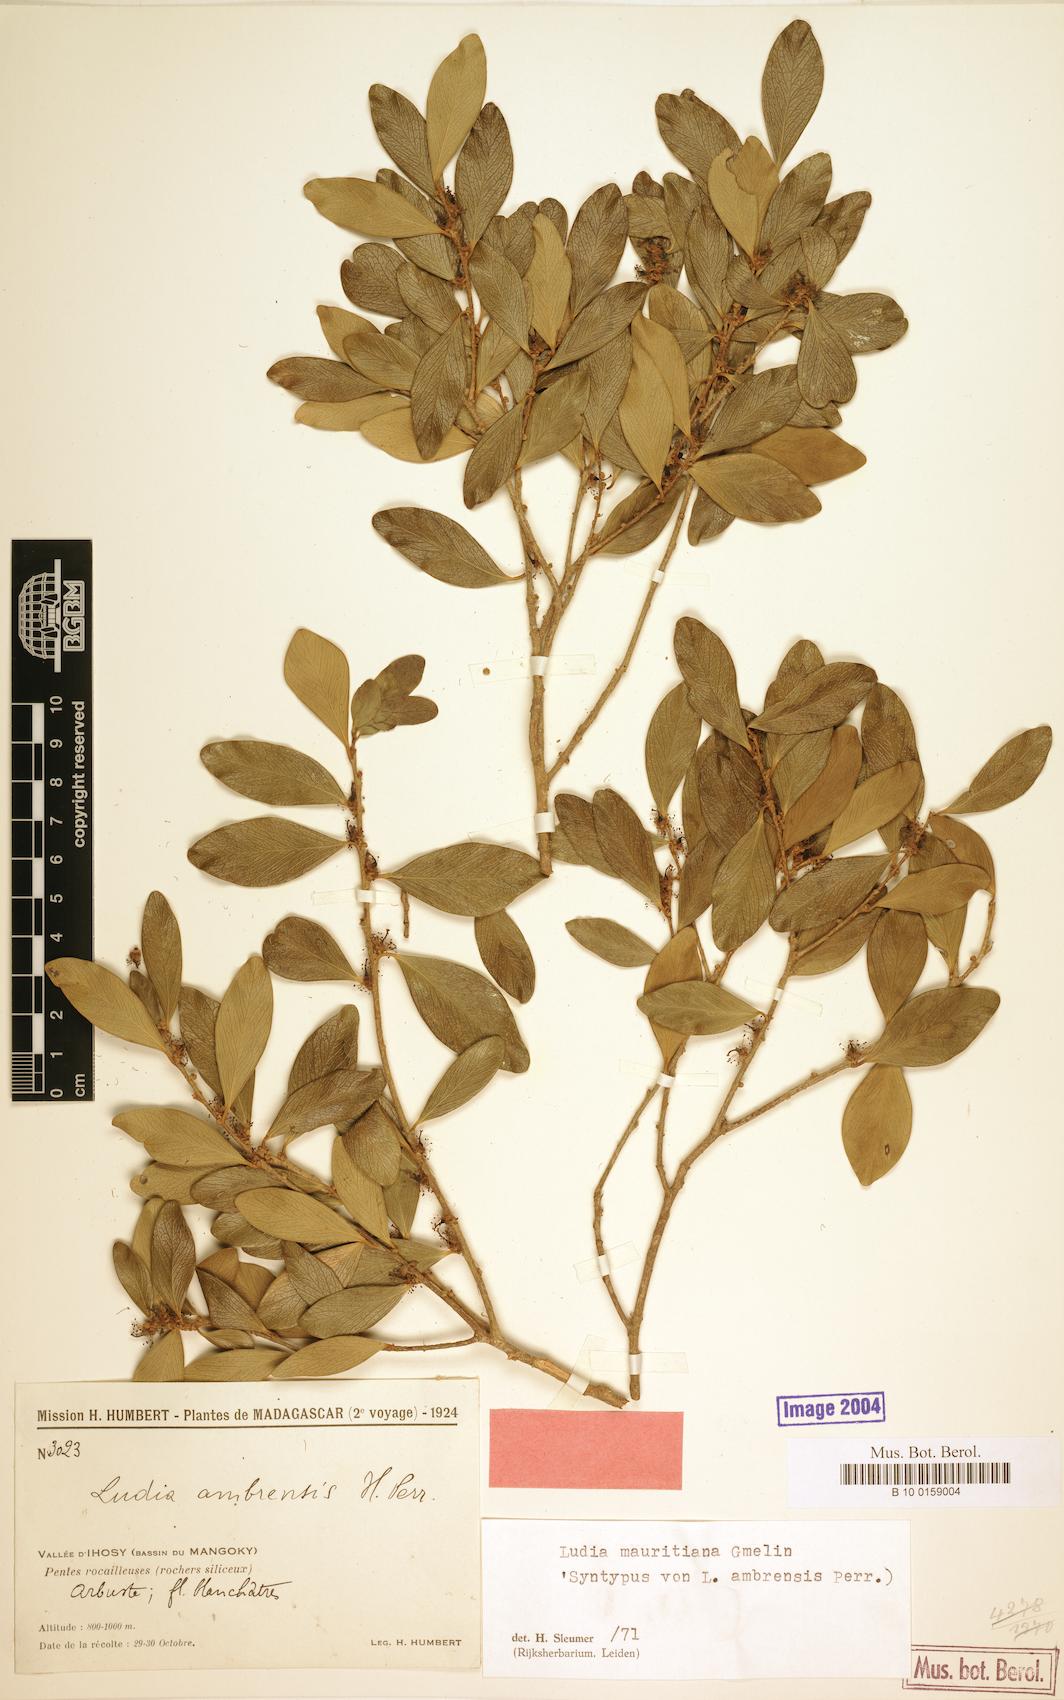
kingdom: Plantae
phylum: Tracheophyta
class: Magnoliopsida
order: Malpighiales
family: Salicaceae
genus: Ludia
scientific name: Ludia mauritiana
